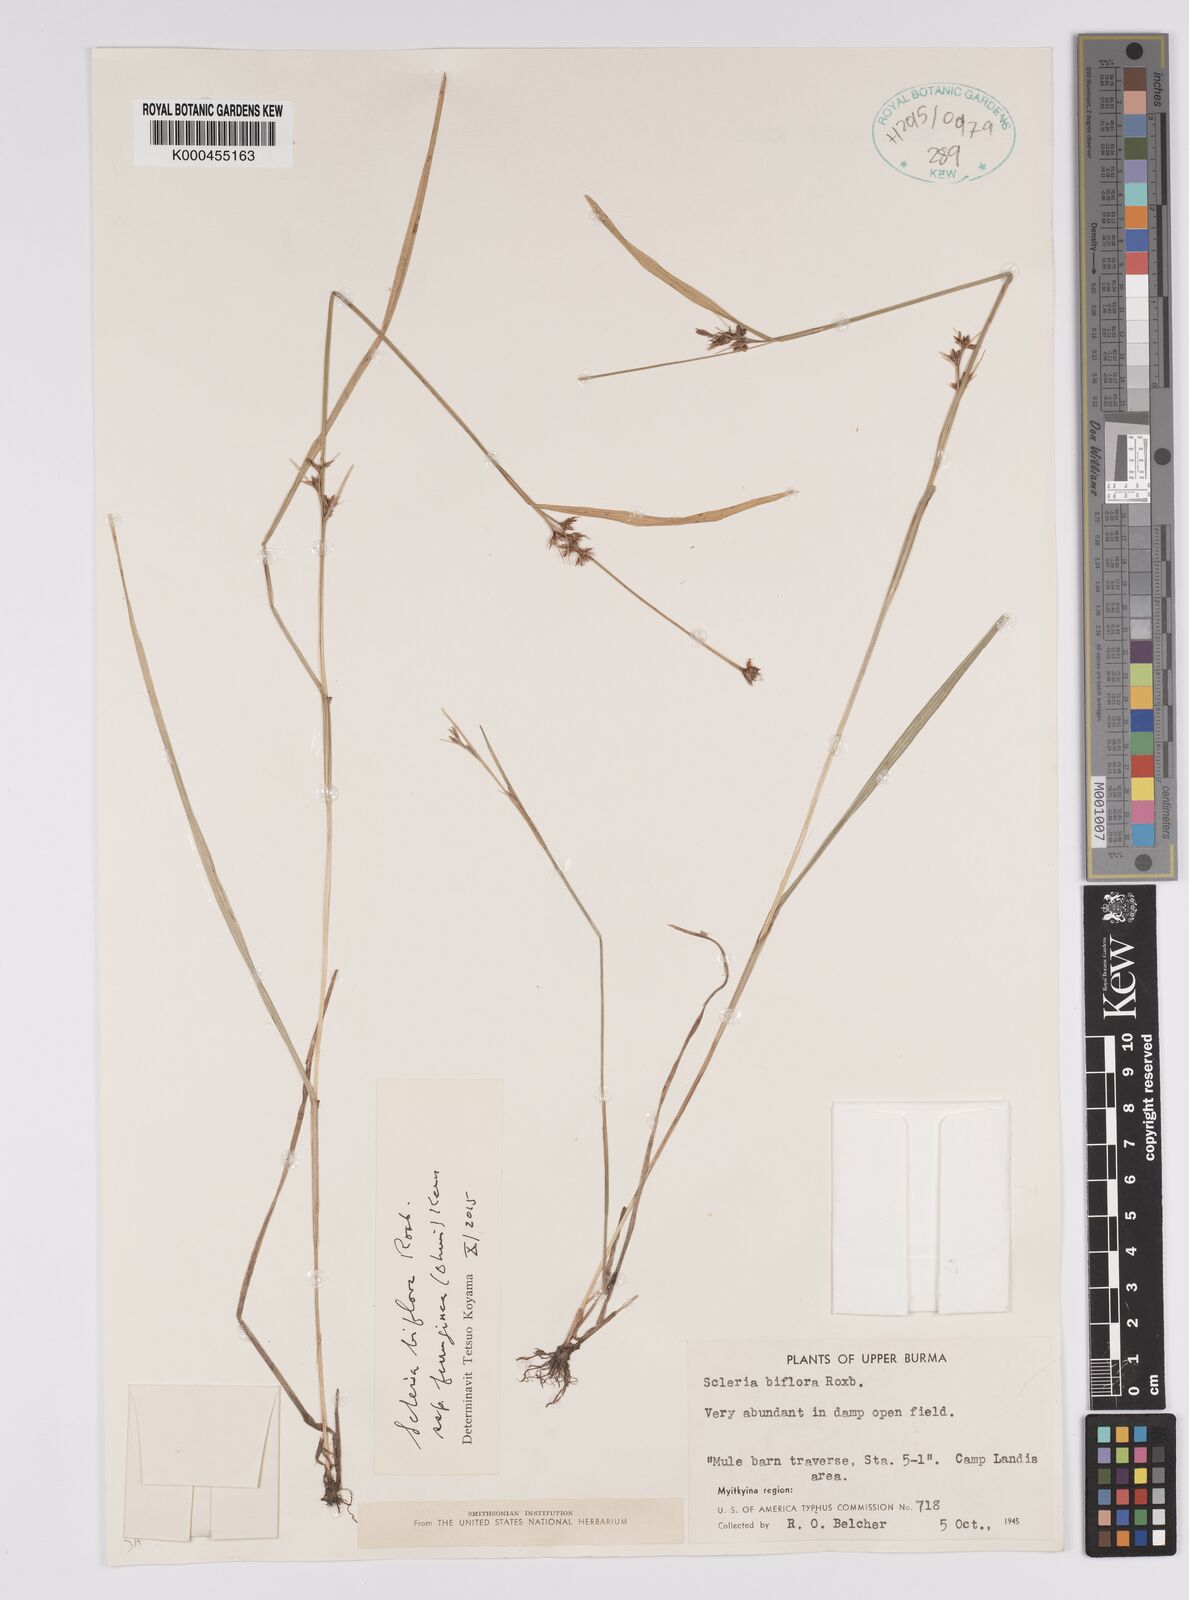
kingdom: Plantae
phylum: Tracheophyta
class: Liliopsida
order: Poales
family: Cyperaceae
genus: Scleria
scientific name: Scleria biflora
